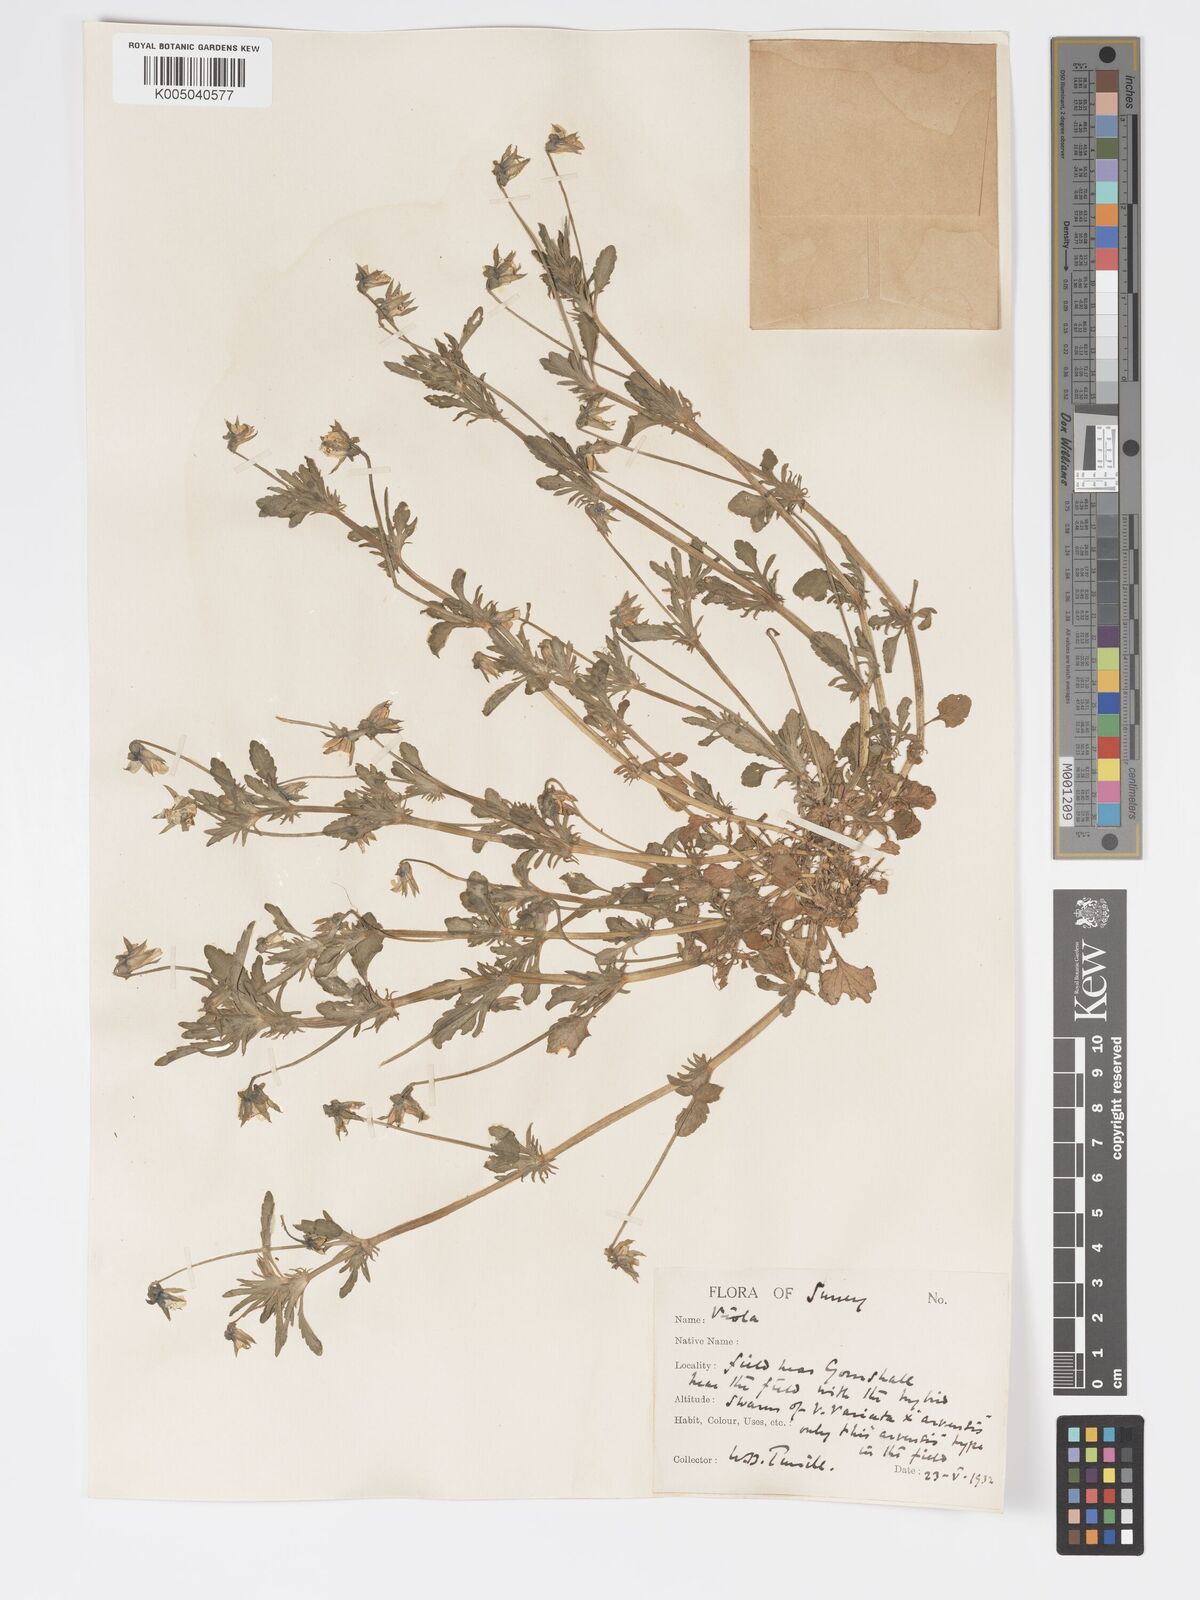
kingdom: Plantae
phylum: Tracheophyta
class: Magnoliopsida
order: Malpighiales
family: Violaceae
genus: Viola
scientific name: Viola
